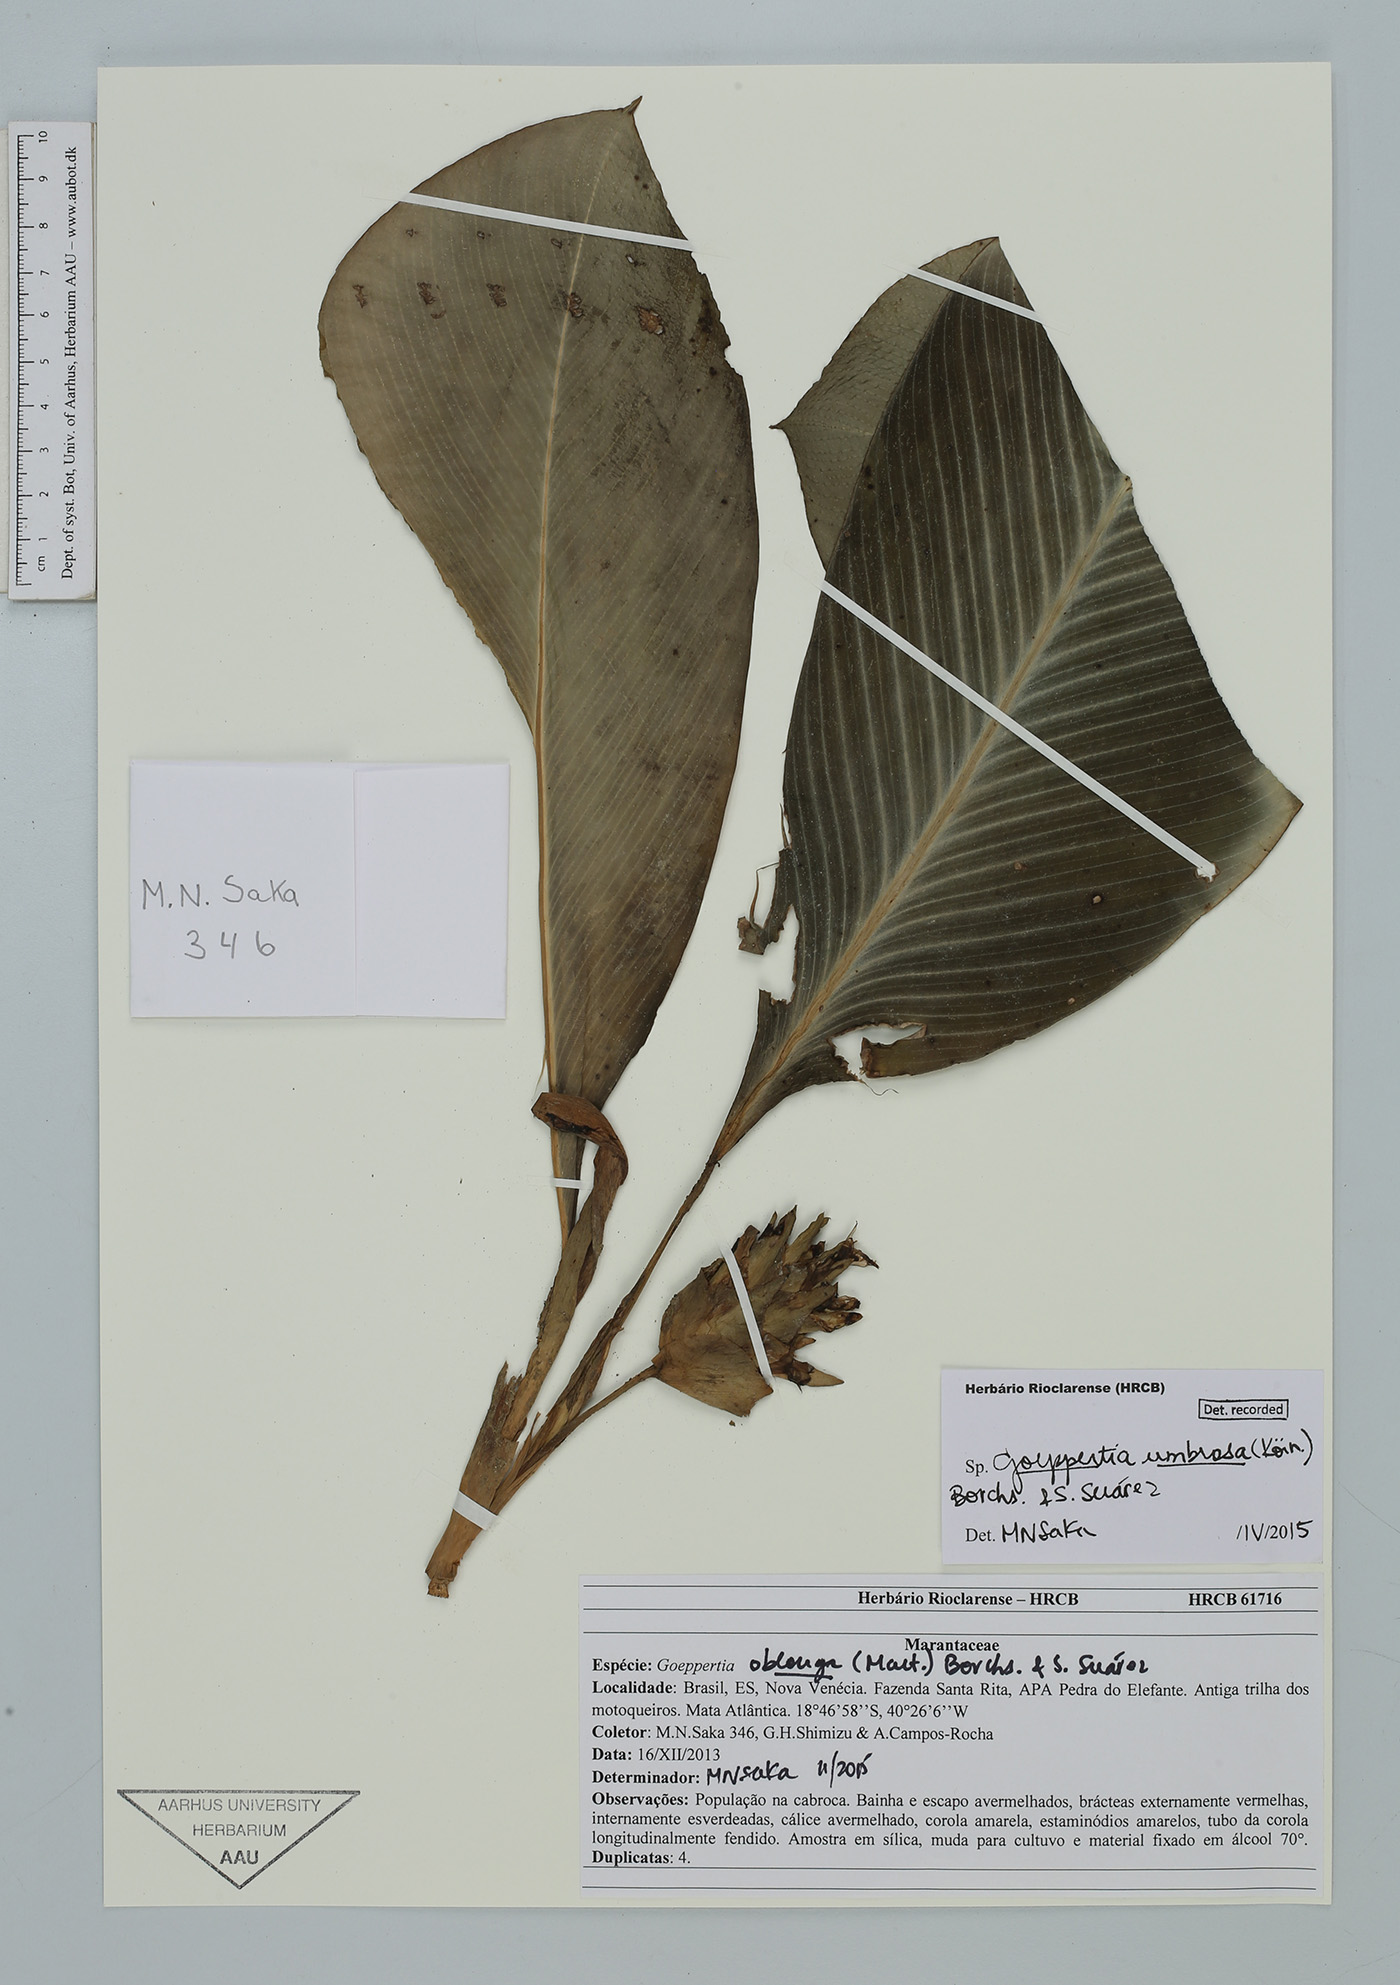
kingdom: Plantae
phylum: Tracheophyta
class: Liliopsida
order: Zingiberales
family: Marantaceae
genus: Goeppertia
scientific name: Goeppertia umbrosa
